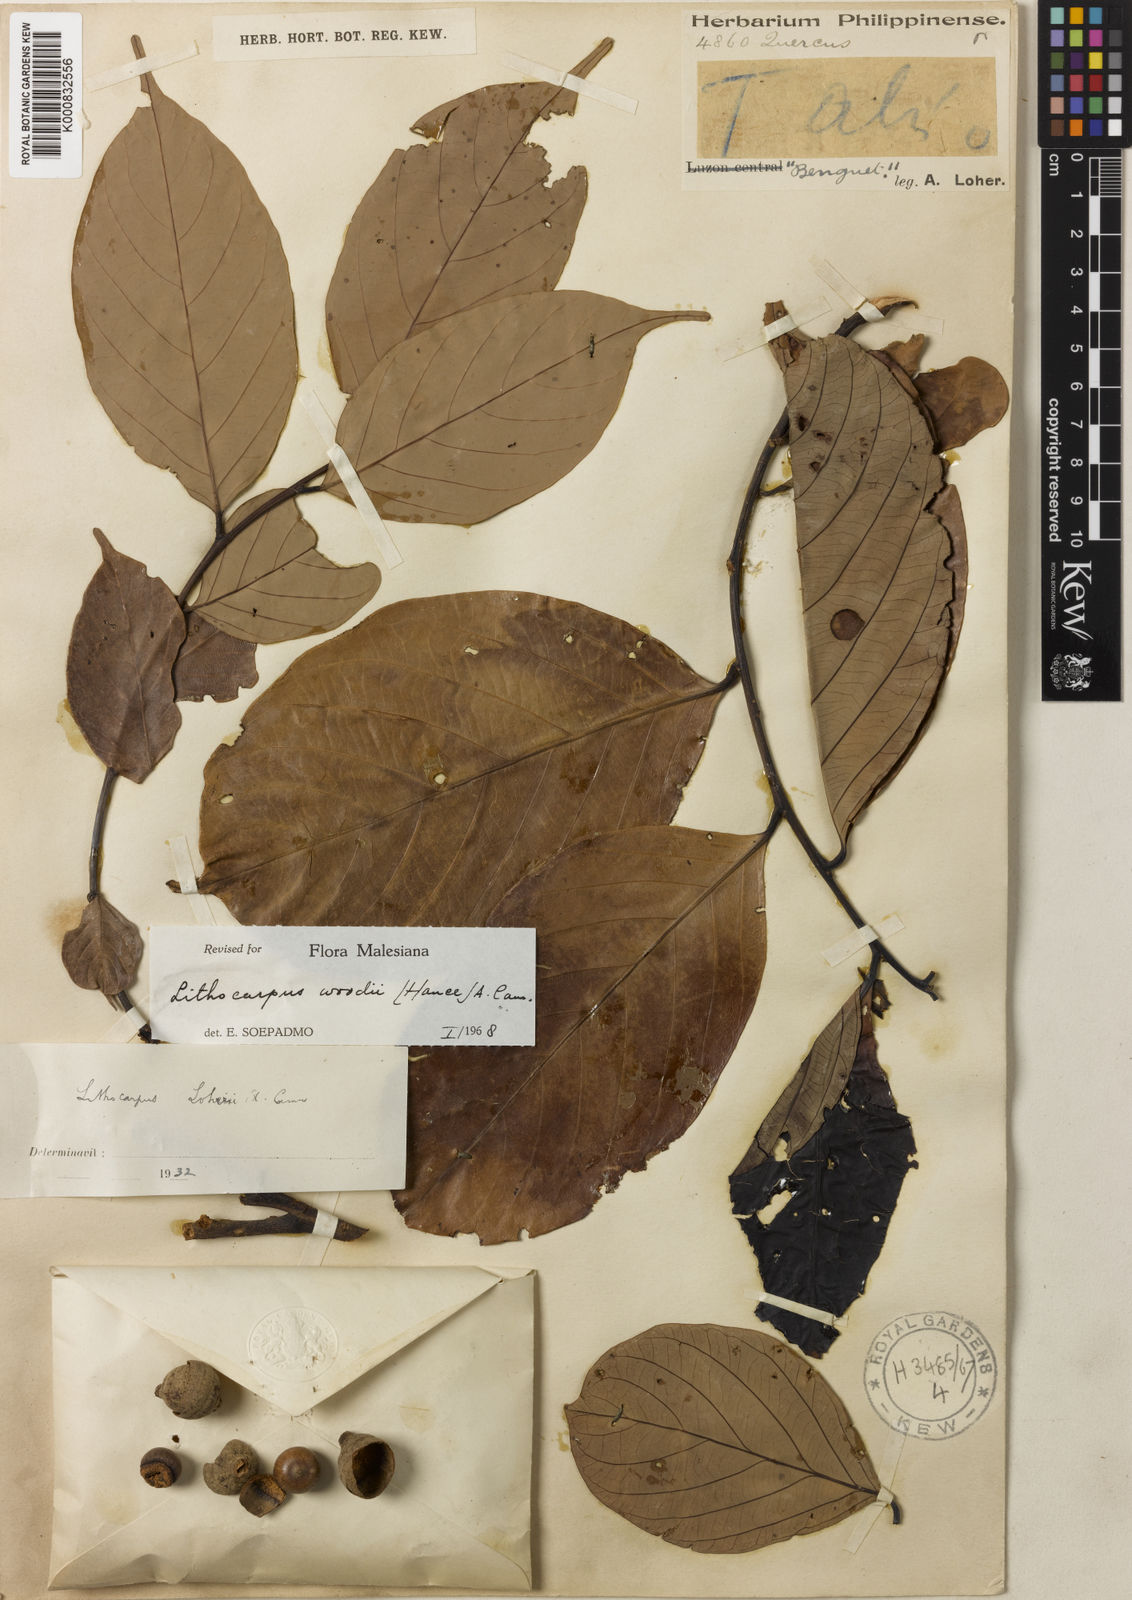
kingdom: Plantae
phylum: Tracheophyta
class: Magnoliopsida
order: Fagales
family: Fagaceae
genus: Lithocarpus
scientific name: Lithocarpus woodii
